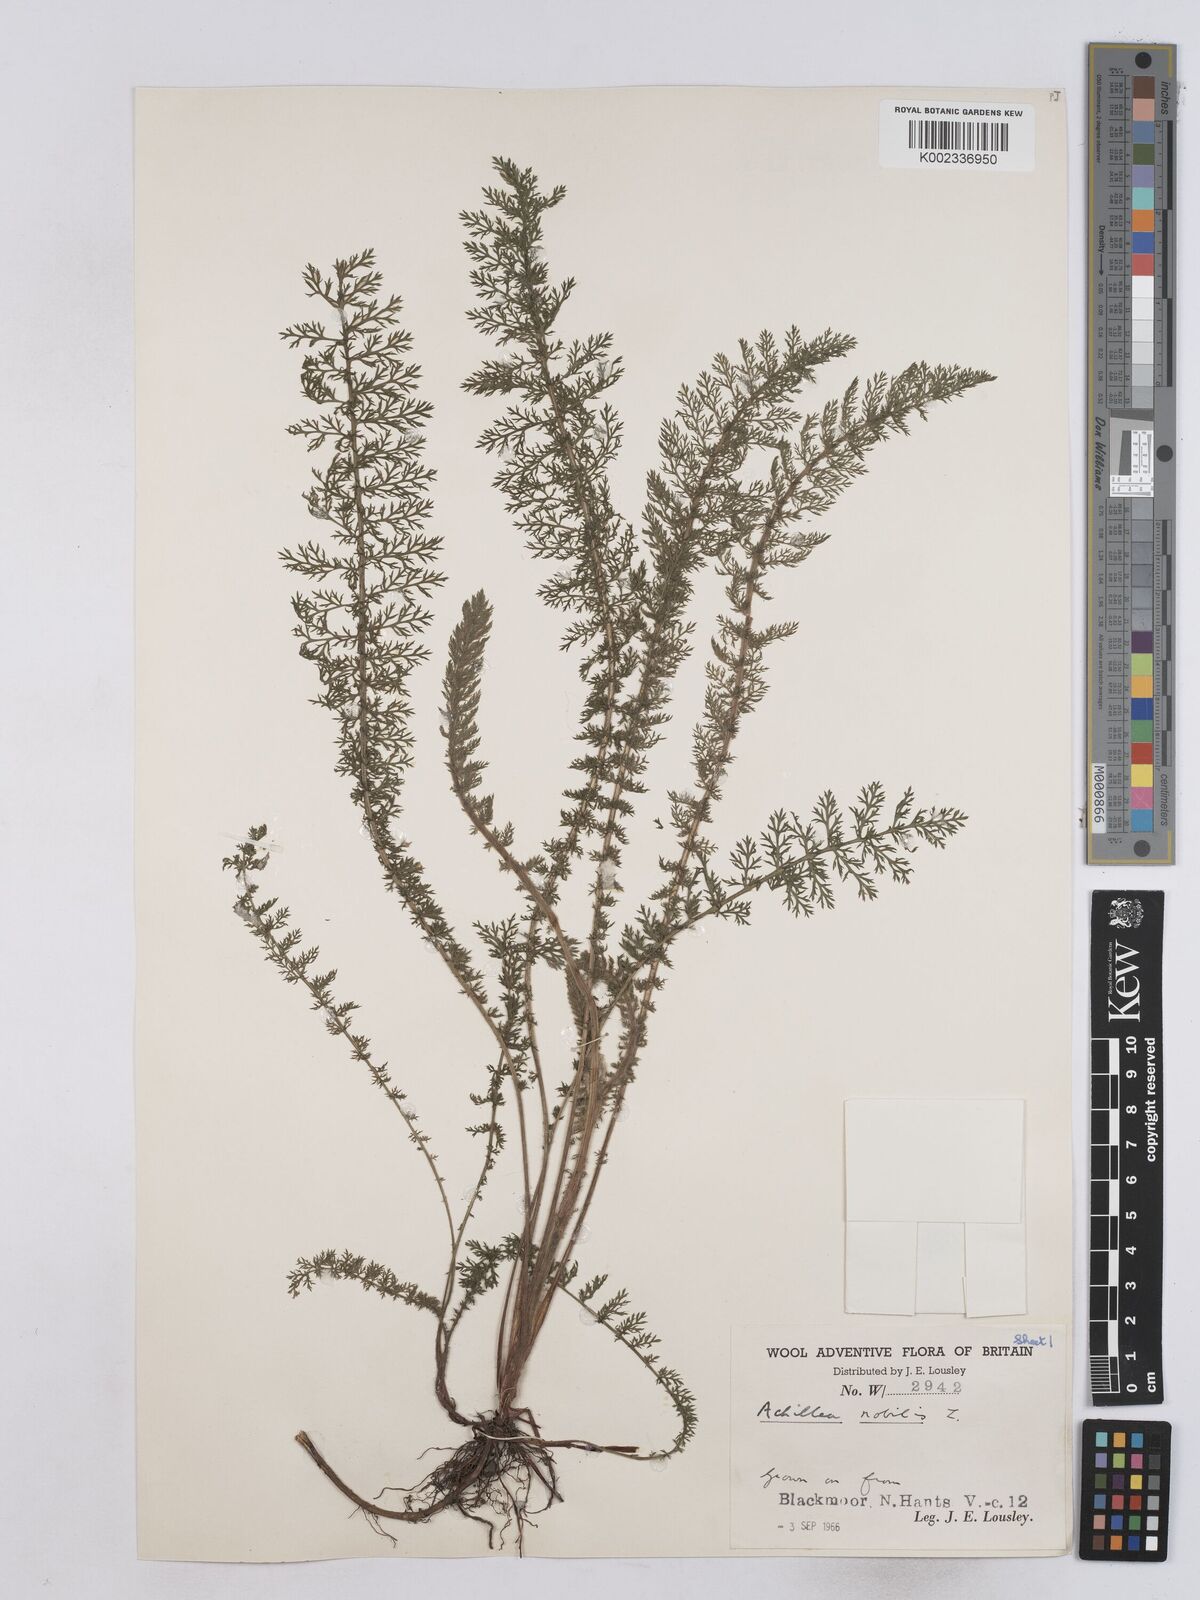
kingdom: Plantae
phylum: Tracheophyta
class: Magnoliopsida
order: Asterales
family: Asteraceae
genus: Achillea
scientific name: Achillea nobilis
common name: Noble yarrow
